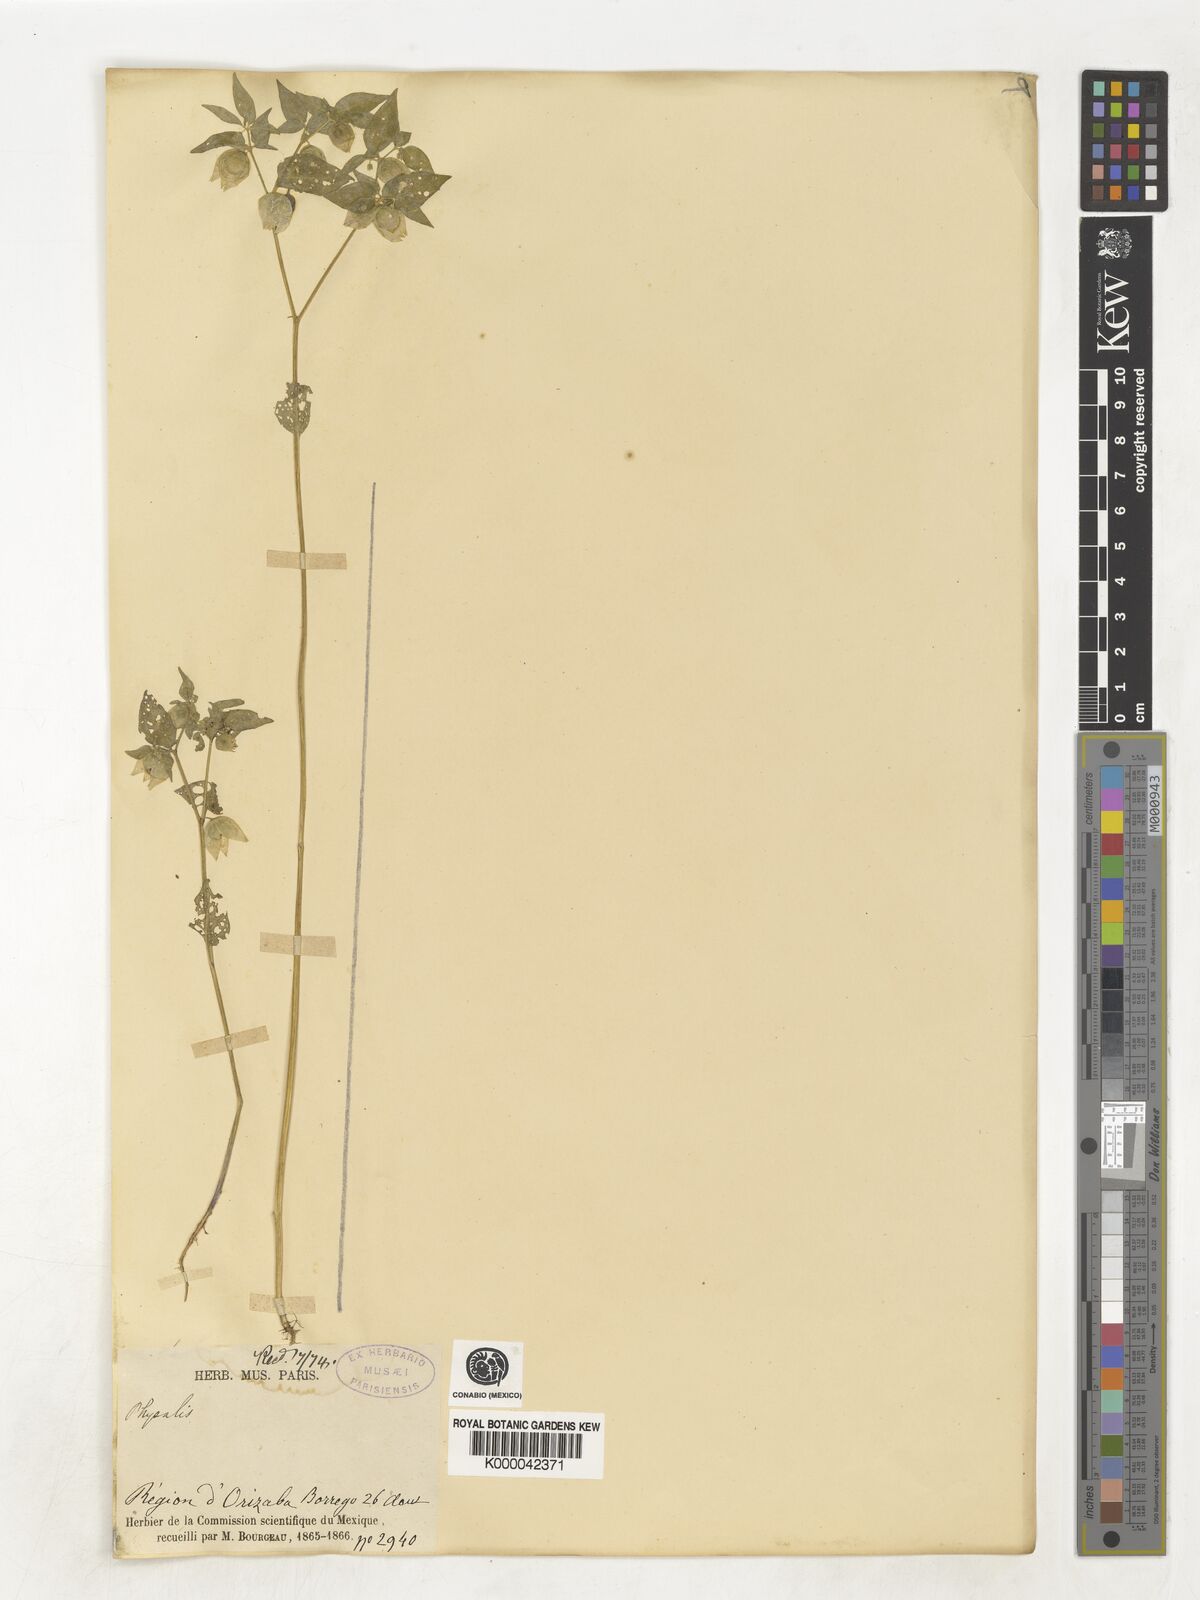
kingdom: Plantae
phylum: Tracheophyta
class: Magnoliopsida
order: Solanales
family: Solanaceae
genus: Physalis
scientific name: Physalis
